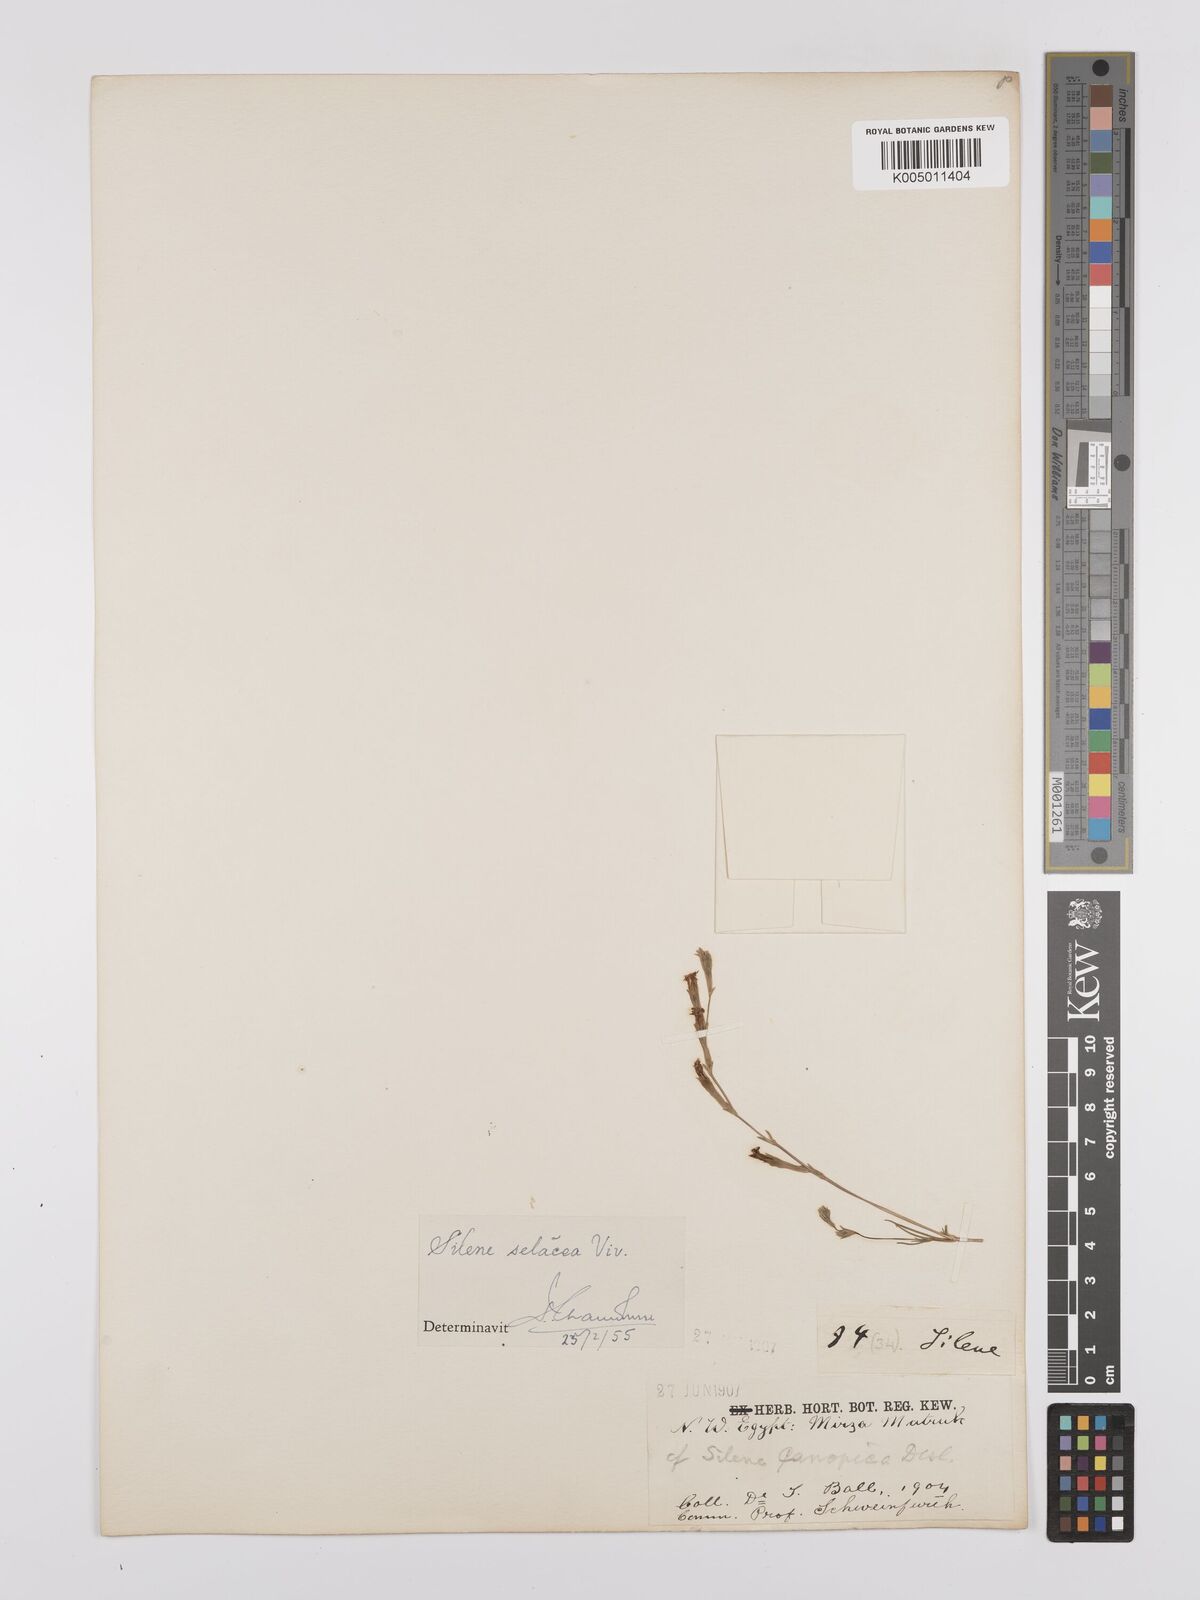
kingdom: Plantae
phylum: Tracheophyta
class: Magnoliopsida
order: Caryophyllales
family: Caryophyllaceae
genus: Silene
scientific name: Silene vivianii
